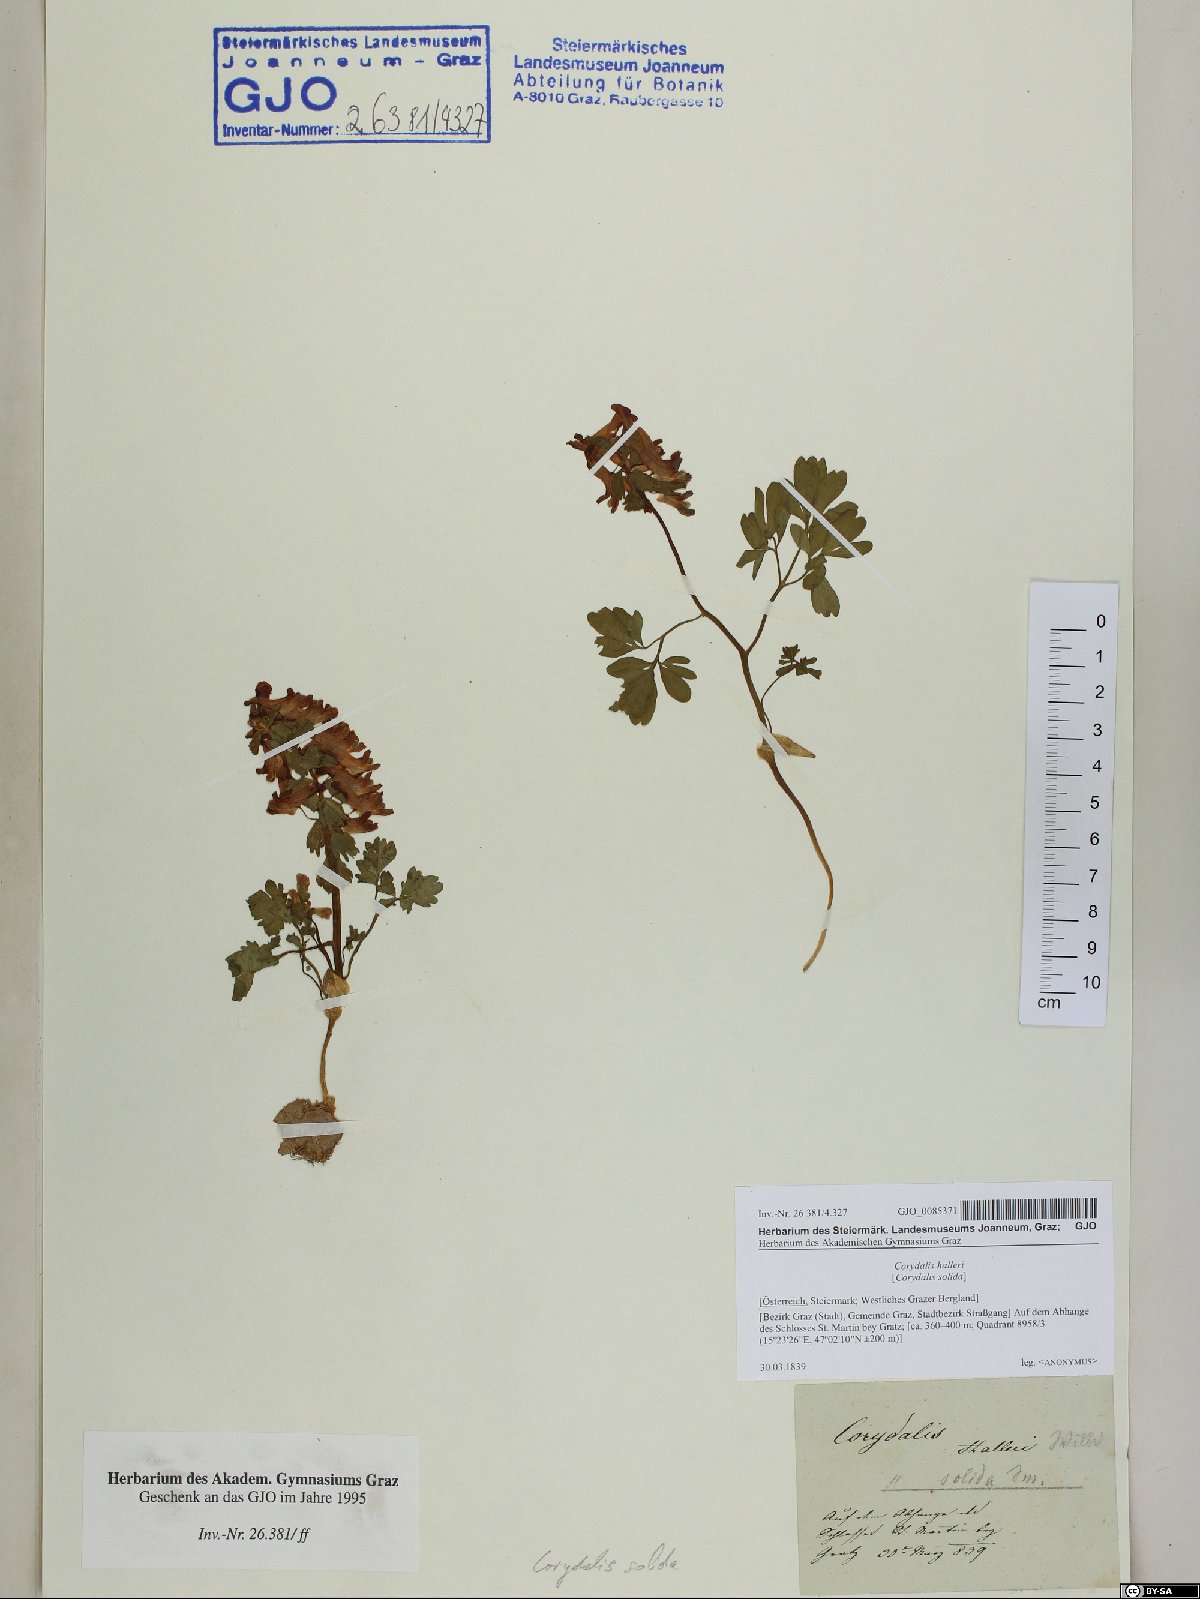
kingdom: Plantae
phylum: Tracheophyta
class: Magnoliopsida
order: Ranunculales
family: Papaveraceae
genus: Corydalis
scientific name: Corydalis solida
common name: Bird-in-a-bush
